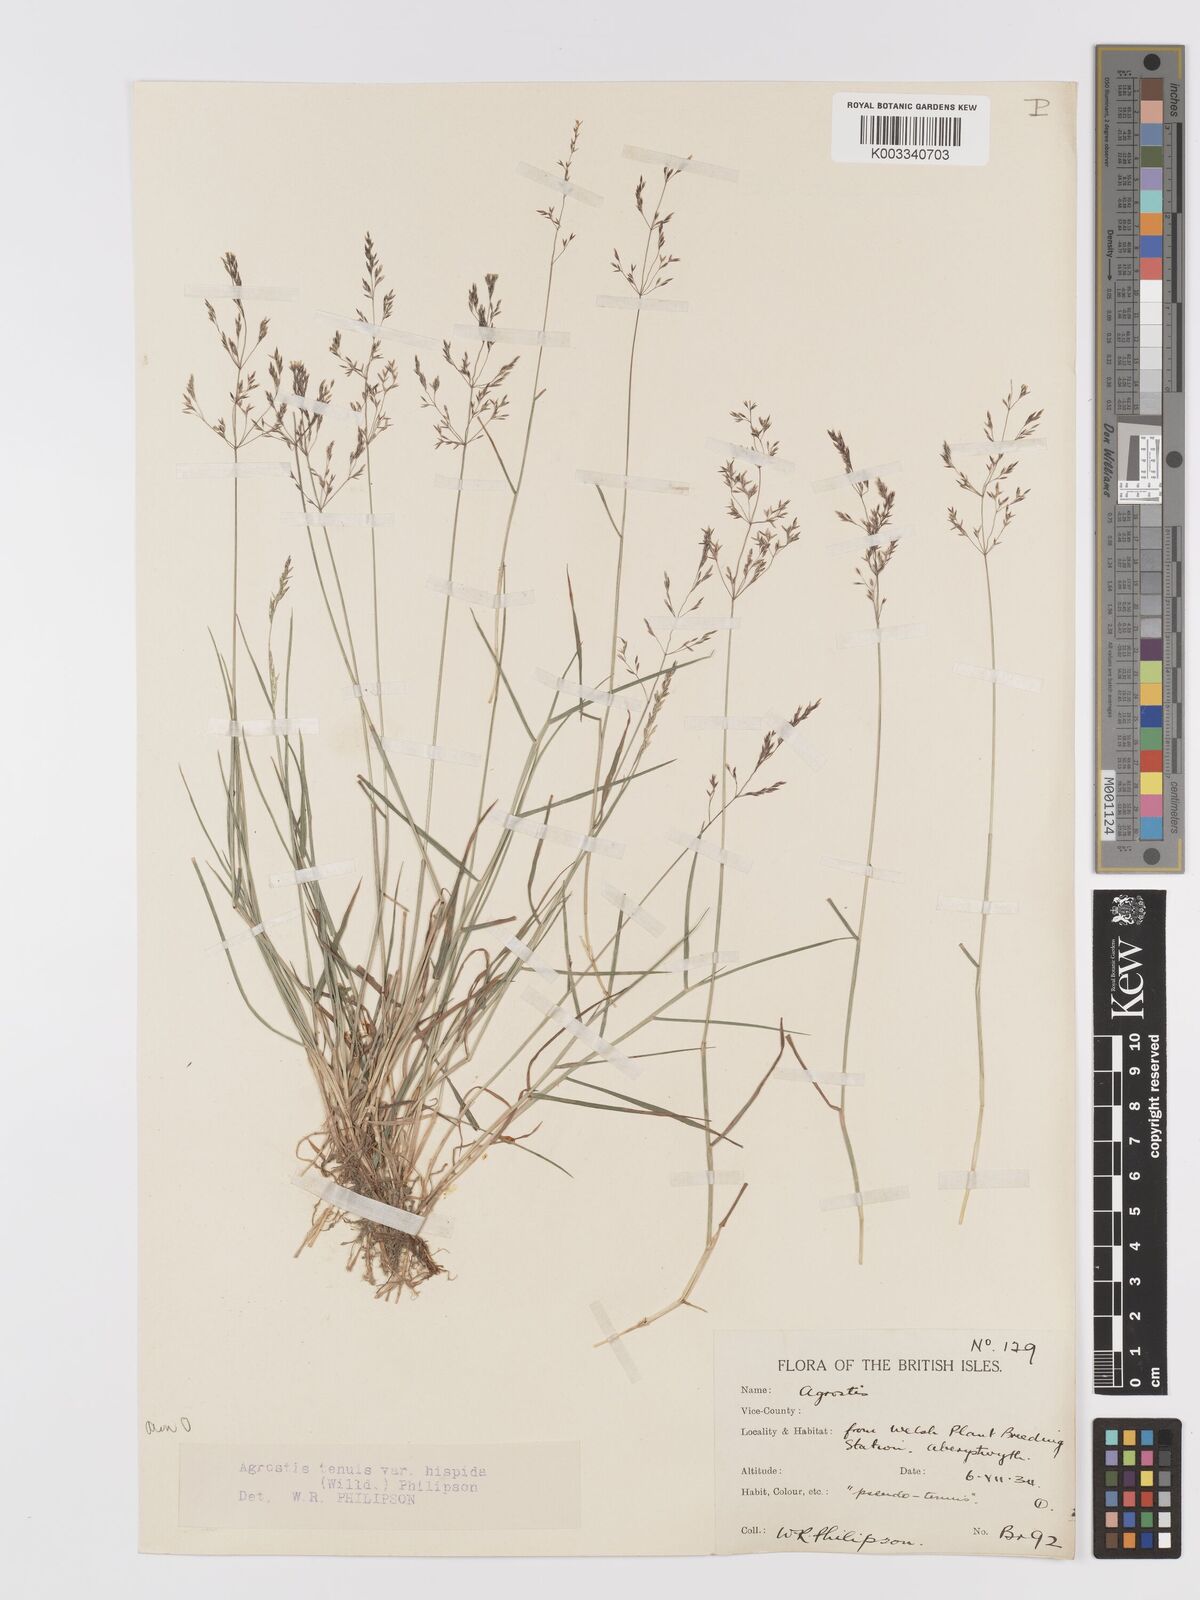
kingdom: Plantae
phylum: Tracheophyta
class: Liliopsida
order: Poales
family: Poaceae
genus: Agrostis
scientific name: Agrostis capillaris
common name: Colonial bentgrass
